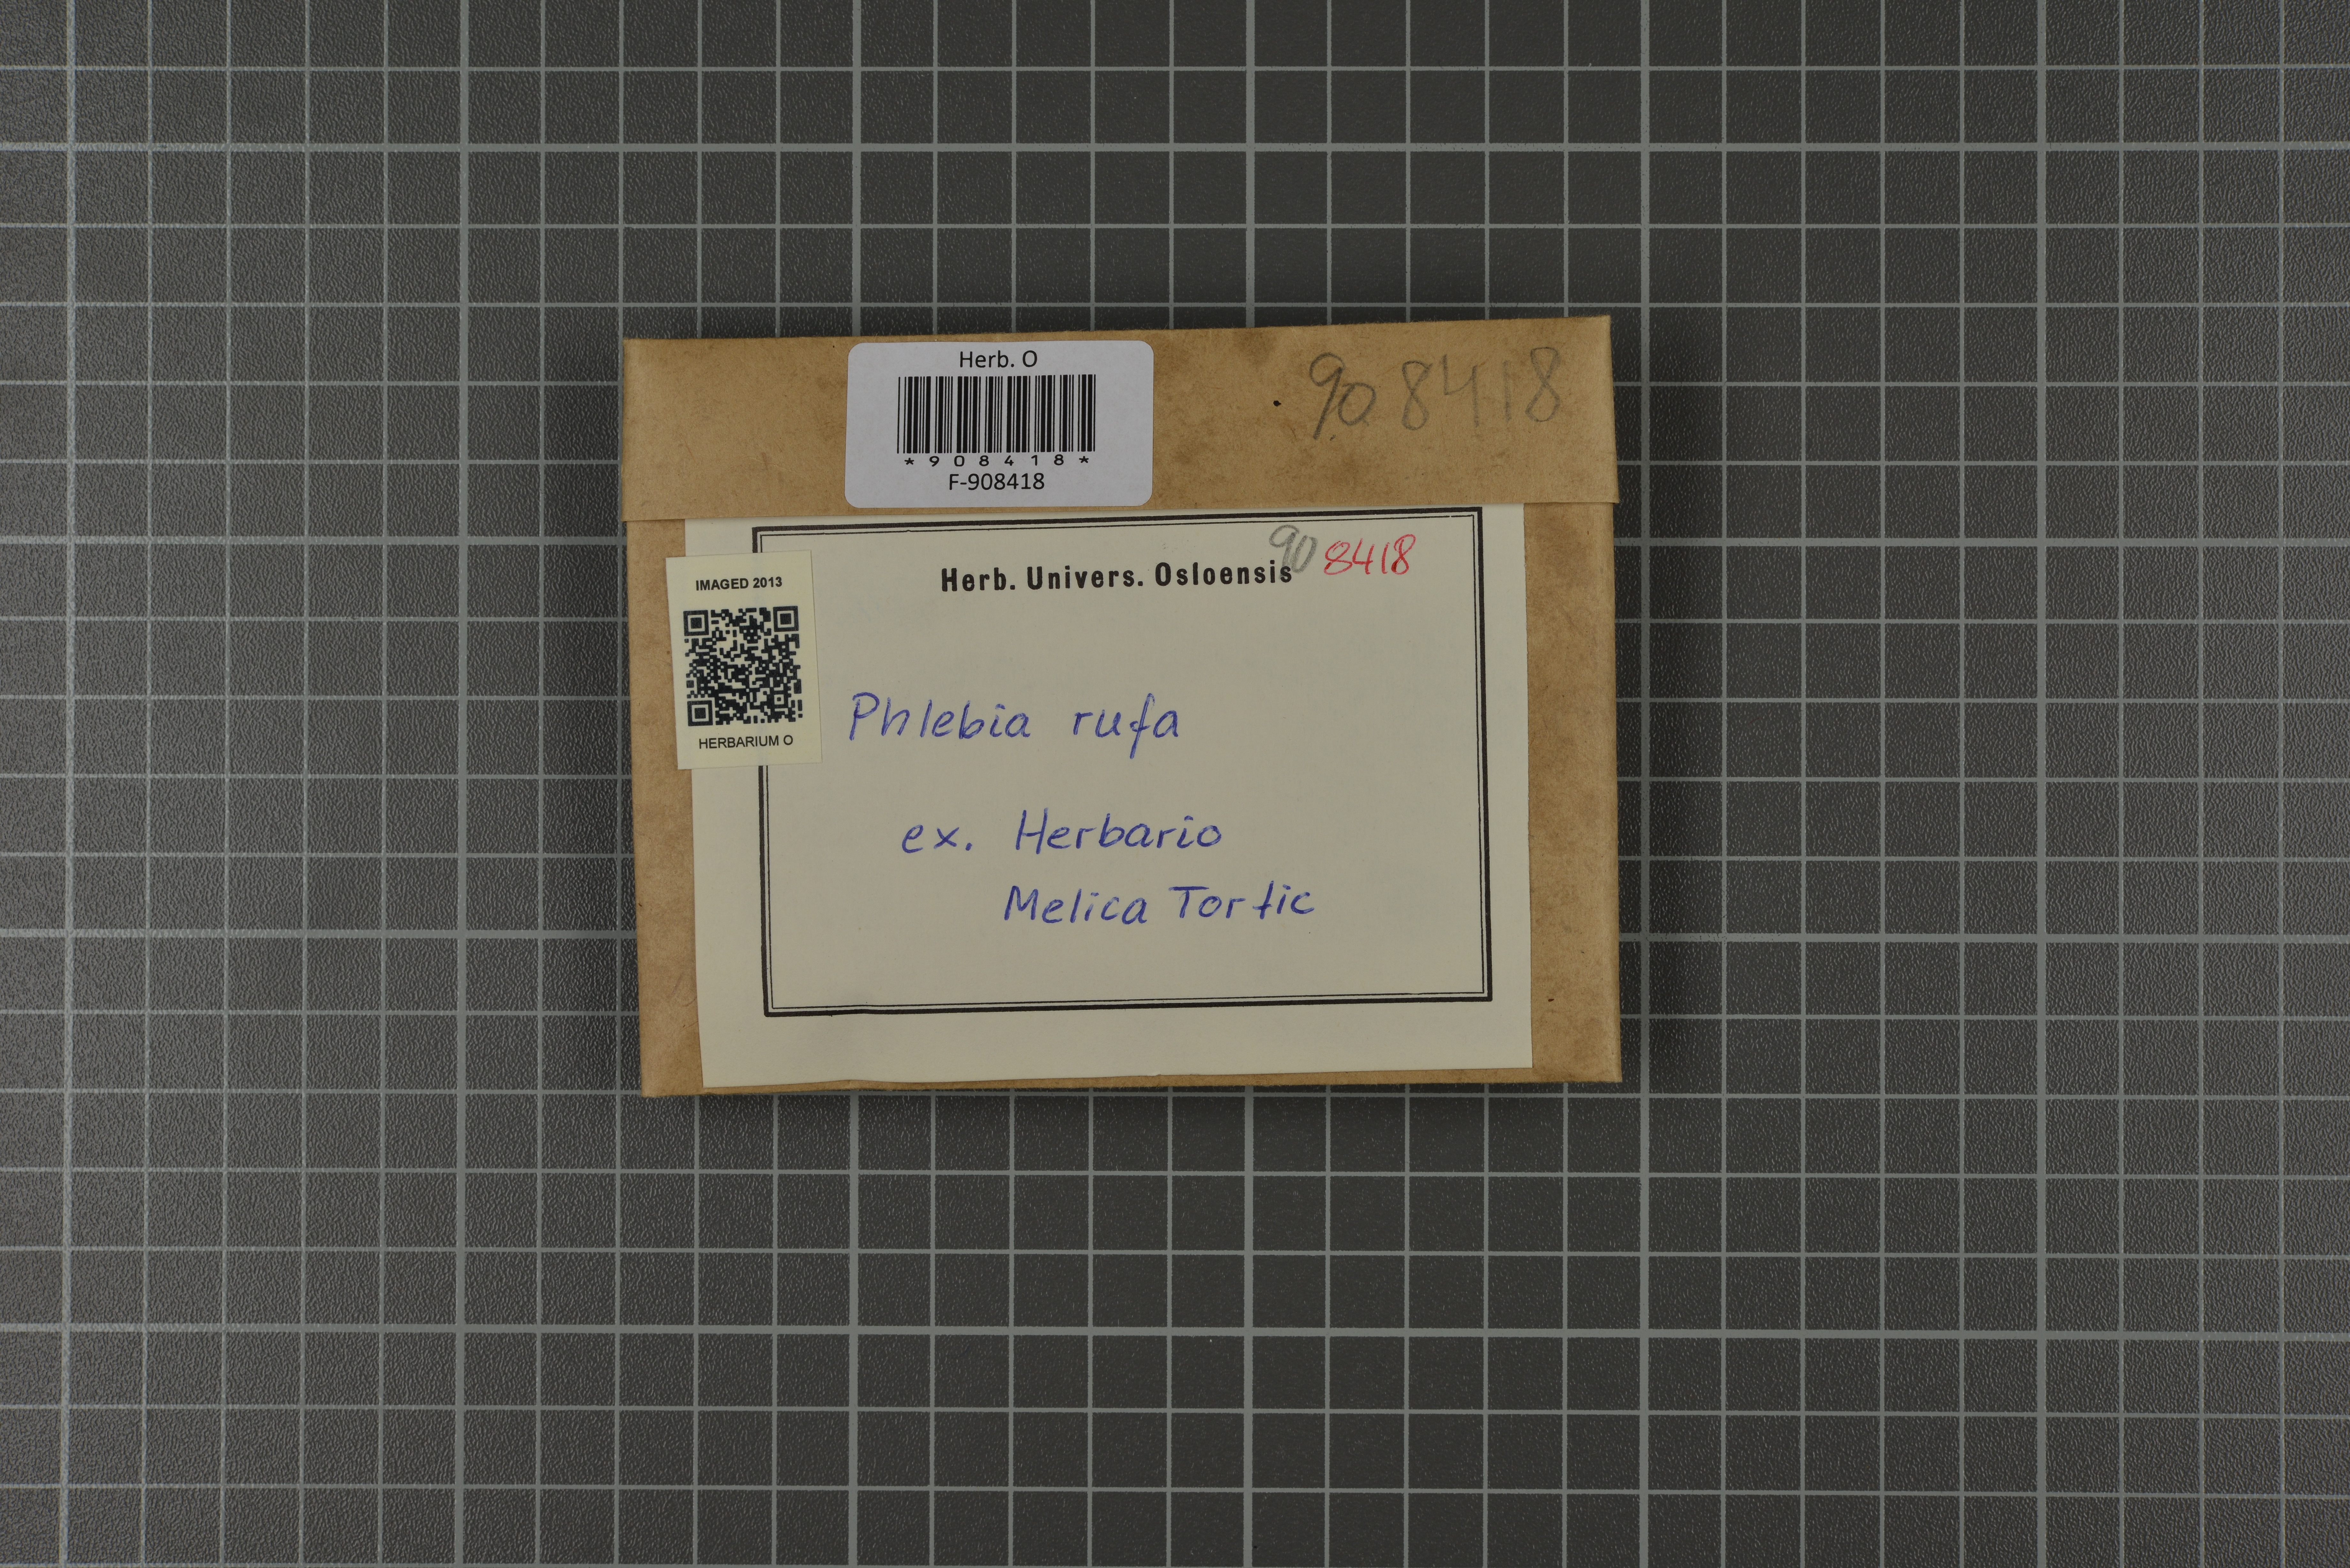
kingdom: Fungi
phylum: Basidiomycota
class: Agaricomycetes
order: Polyporales
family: Meruliaceae
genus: Phlebia
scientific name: Phlebia rufa
